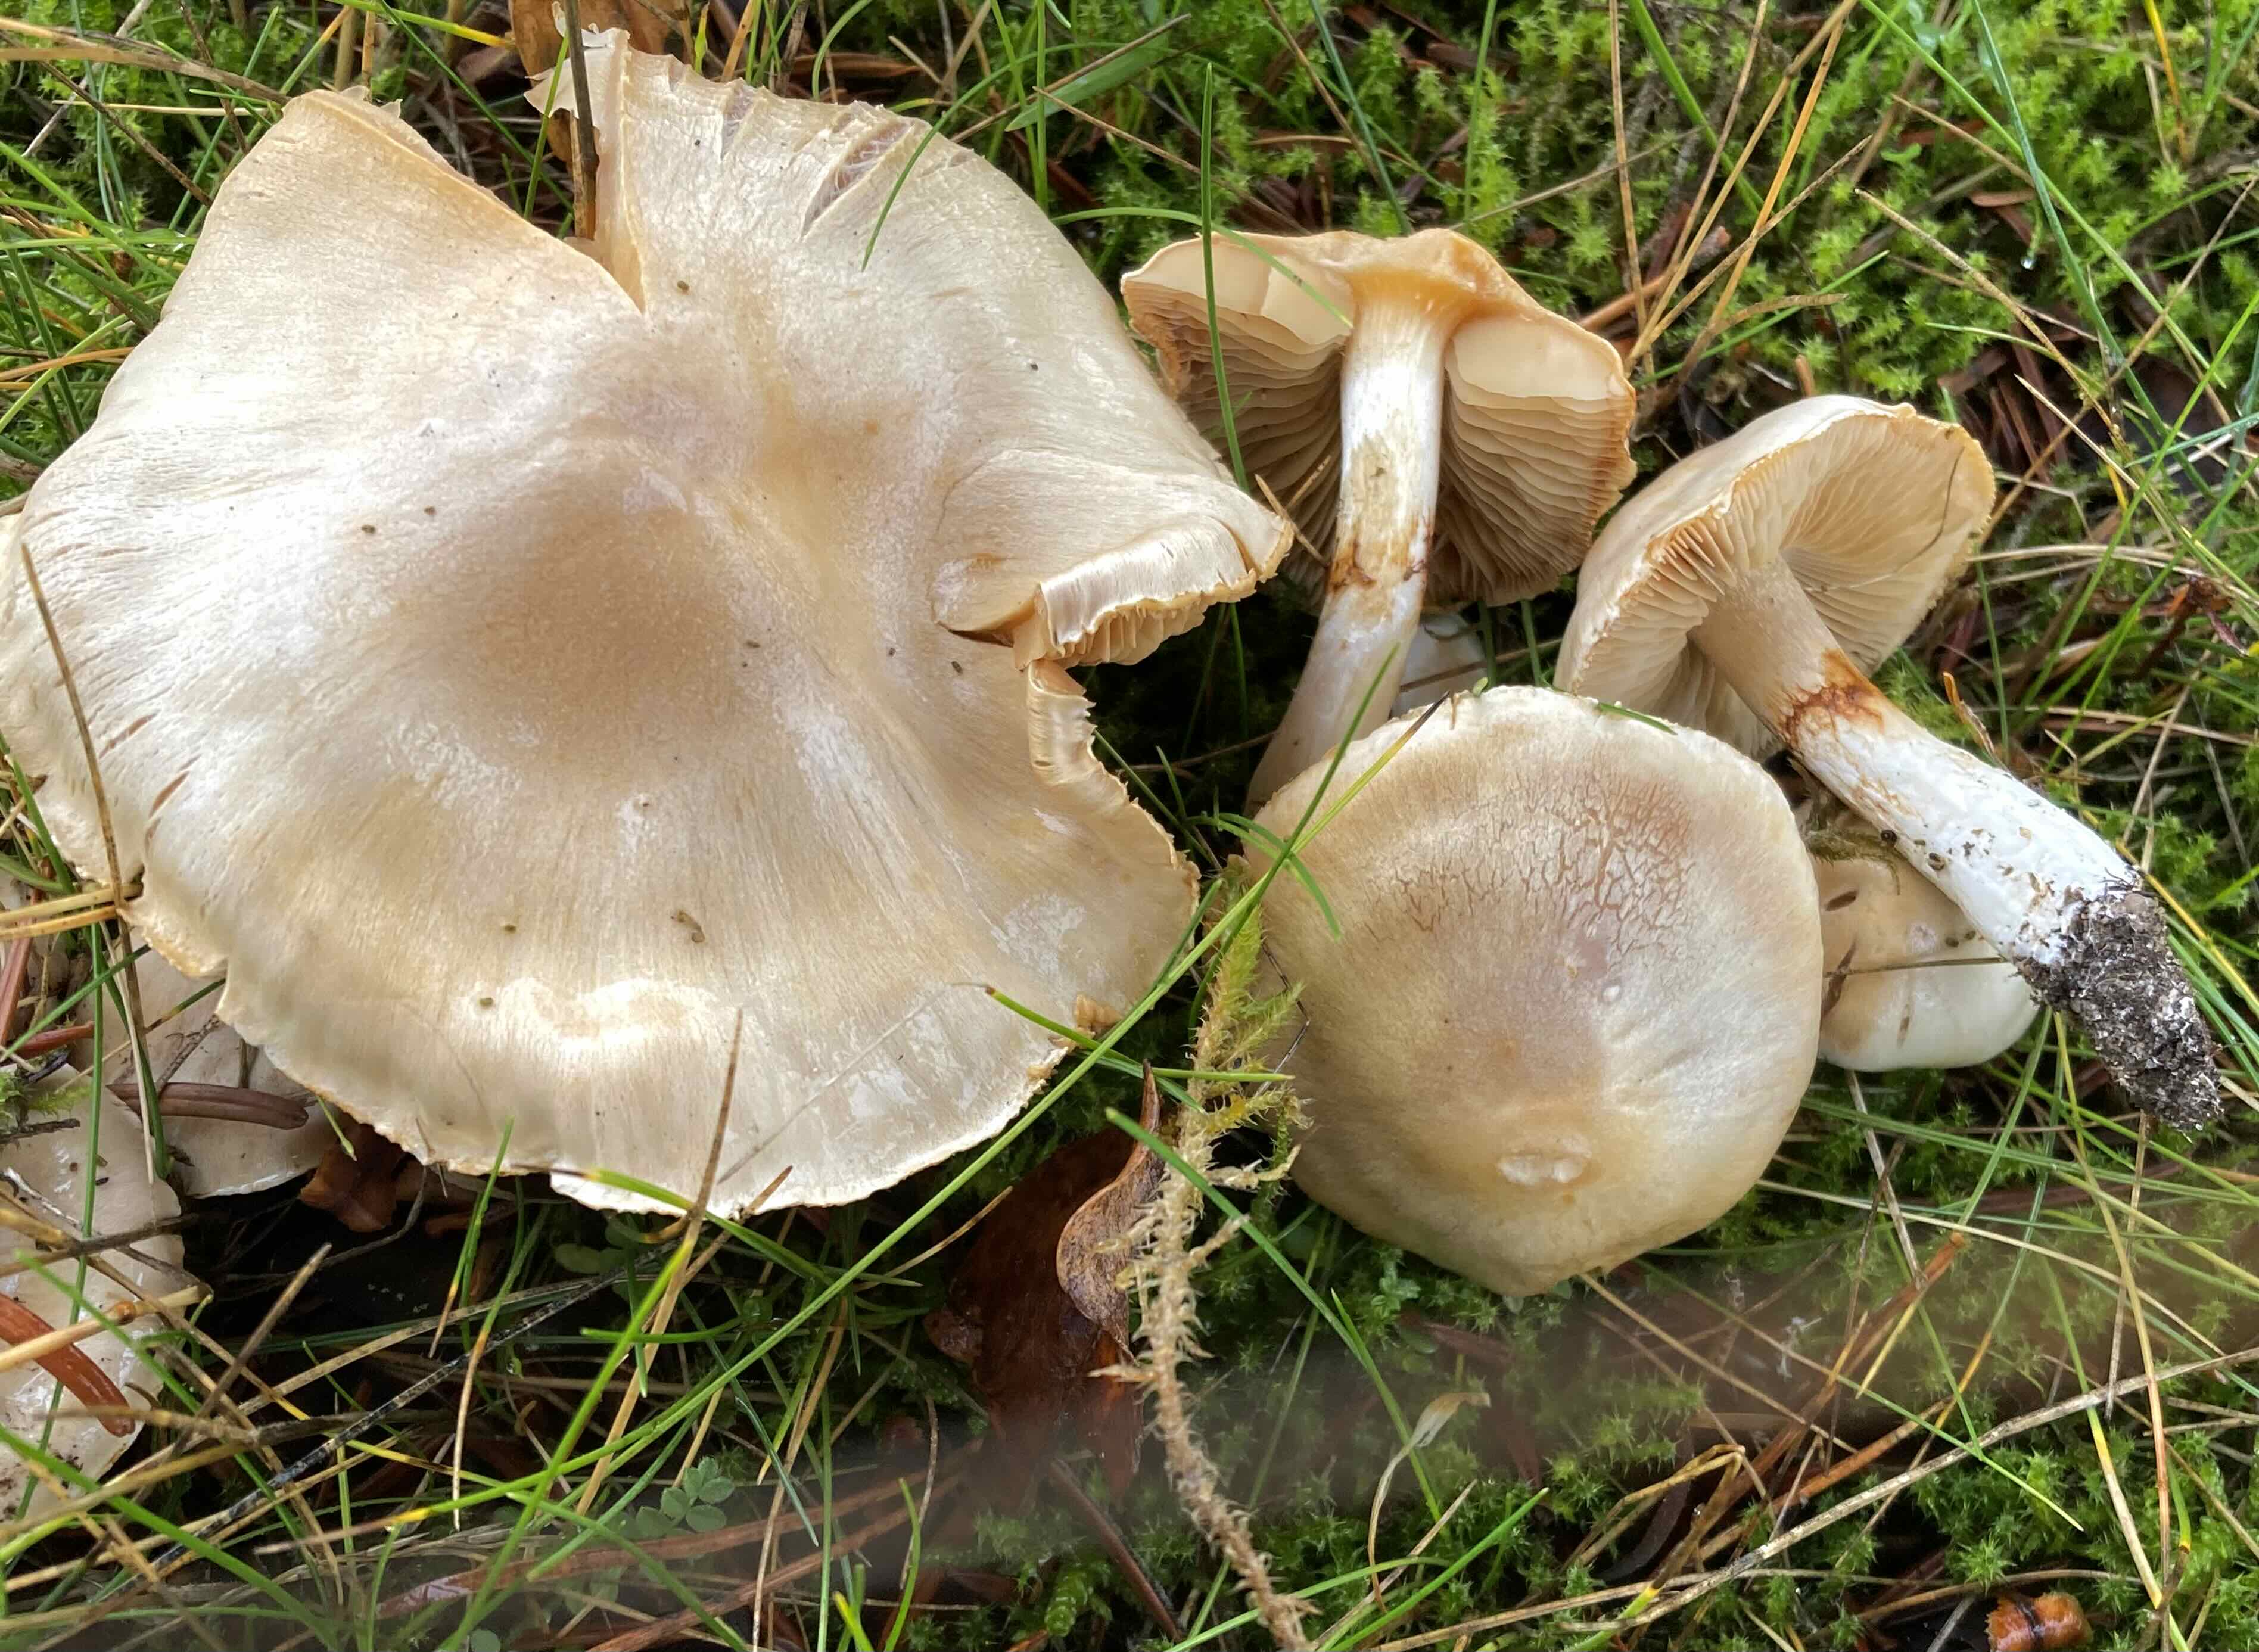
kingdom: Fungi
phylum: Basidiomycota
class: Agaricomycetes
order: Agaricales
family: Cortinariaceae
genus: Cortinarius
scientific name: Cortinarius
